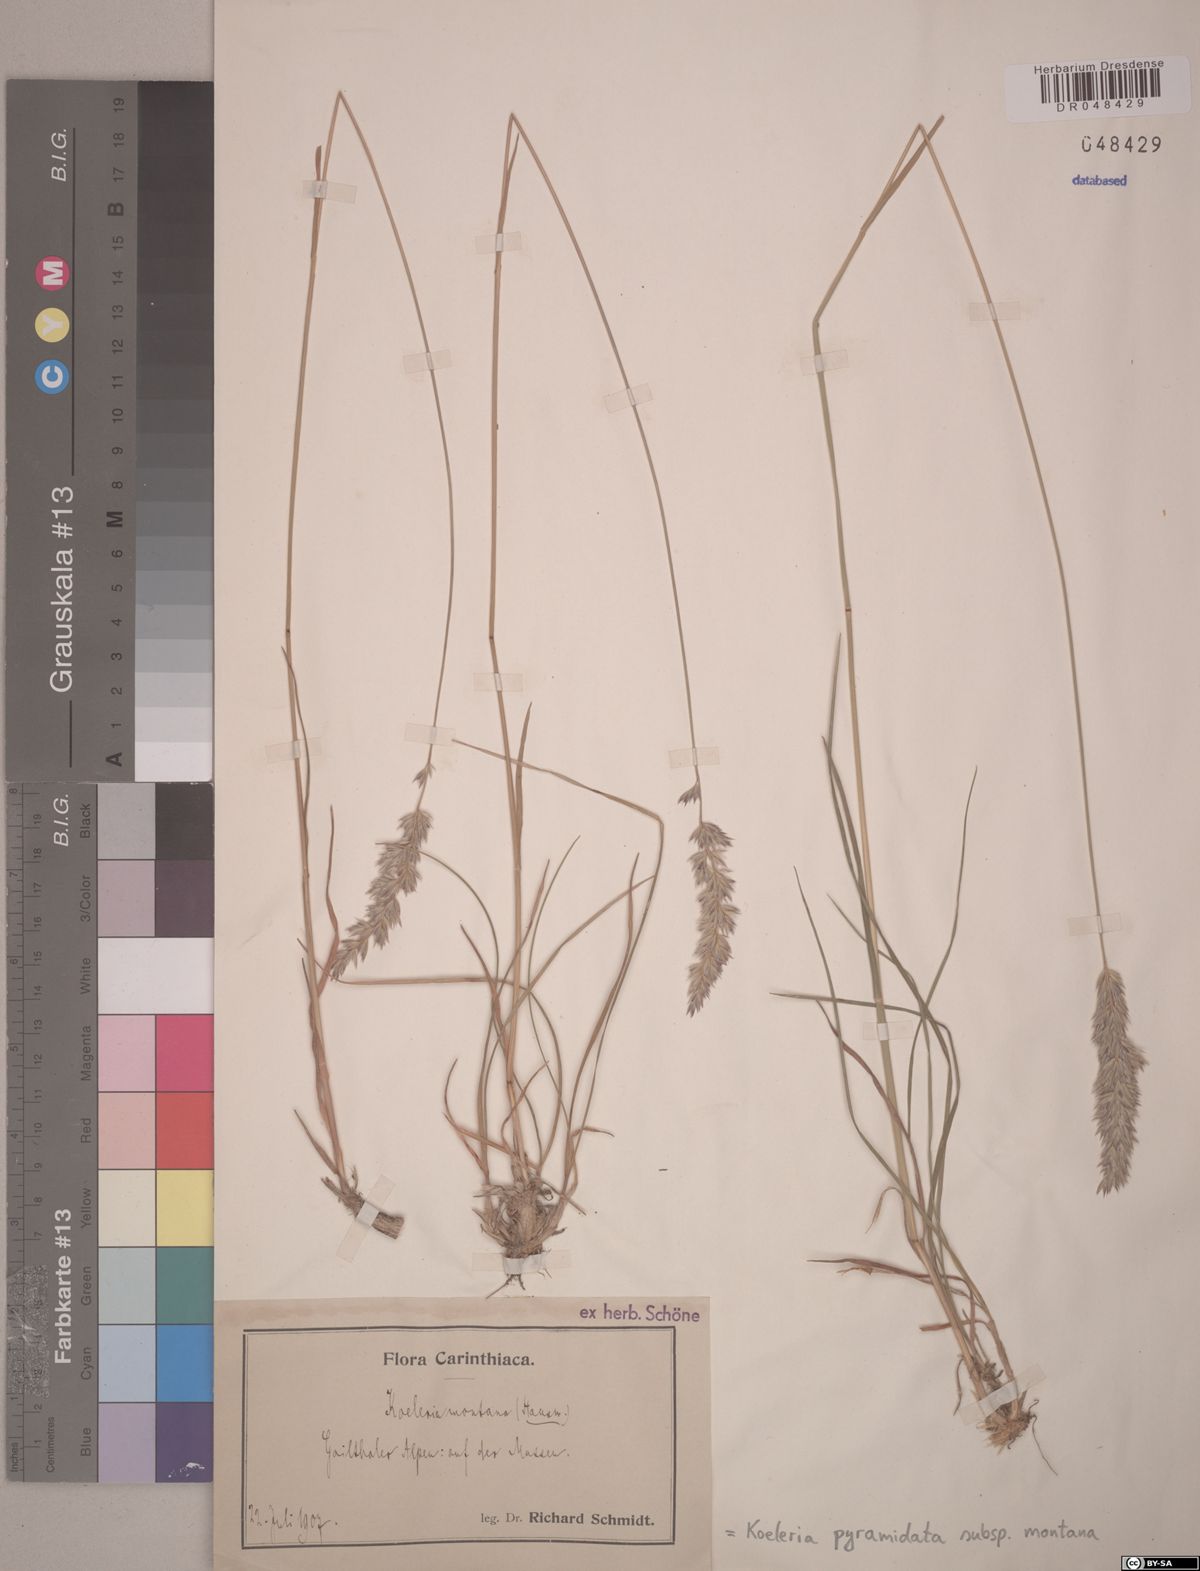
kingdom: Plantae
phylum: Tracheophyta
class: Liliopsida
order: Poales
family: Poaceae
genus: Koeleria
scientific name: Koeleria pyramidata
